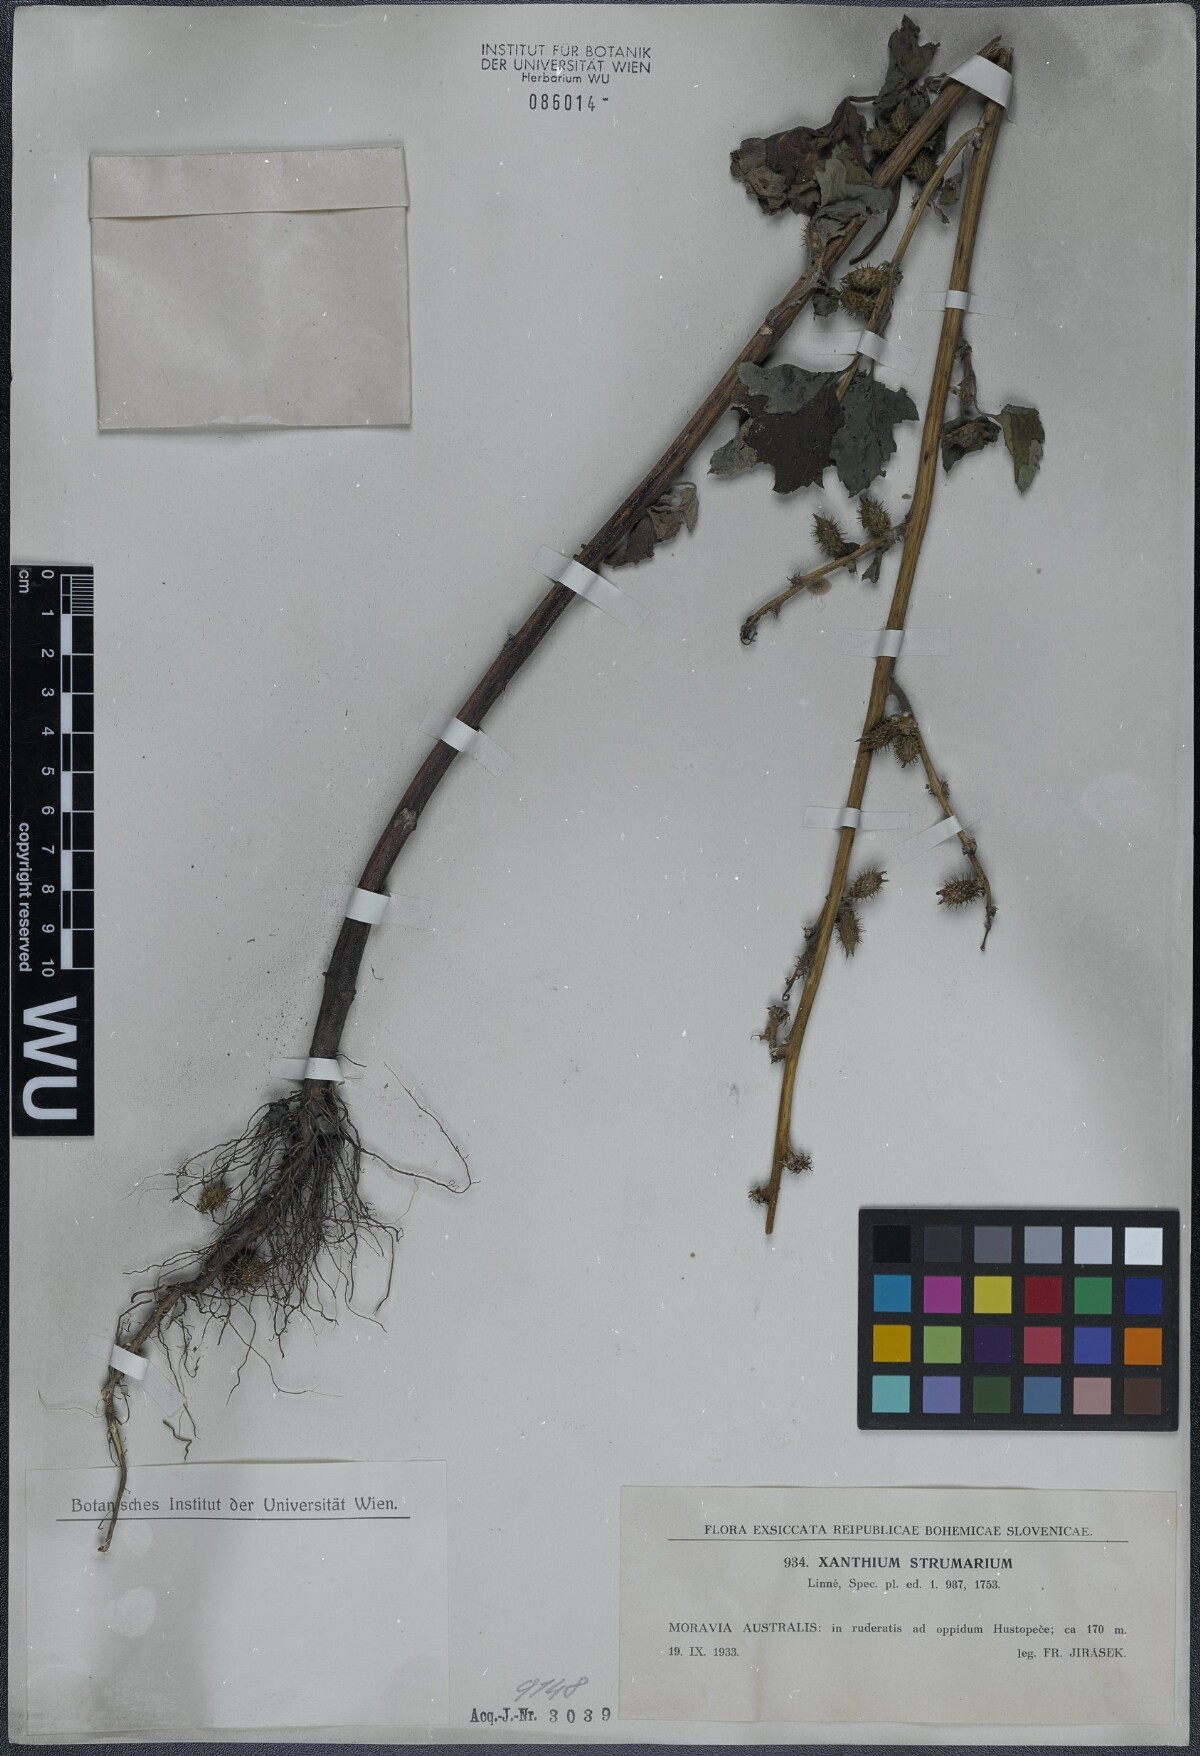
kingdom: Plantae
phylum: Tracheophyta
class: Magnoliopsida
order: Asterales
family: Asteraceae
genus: Xanthium
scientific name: Xanthium strumarium
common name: Rough cocklebur
